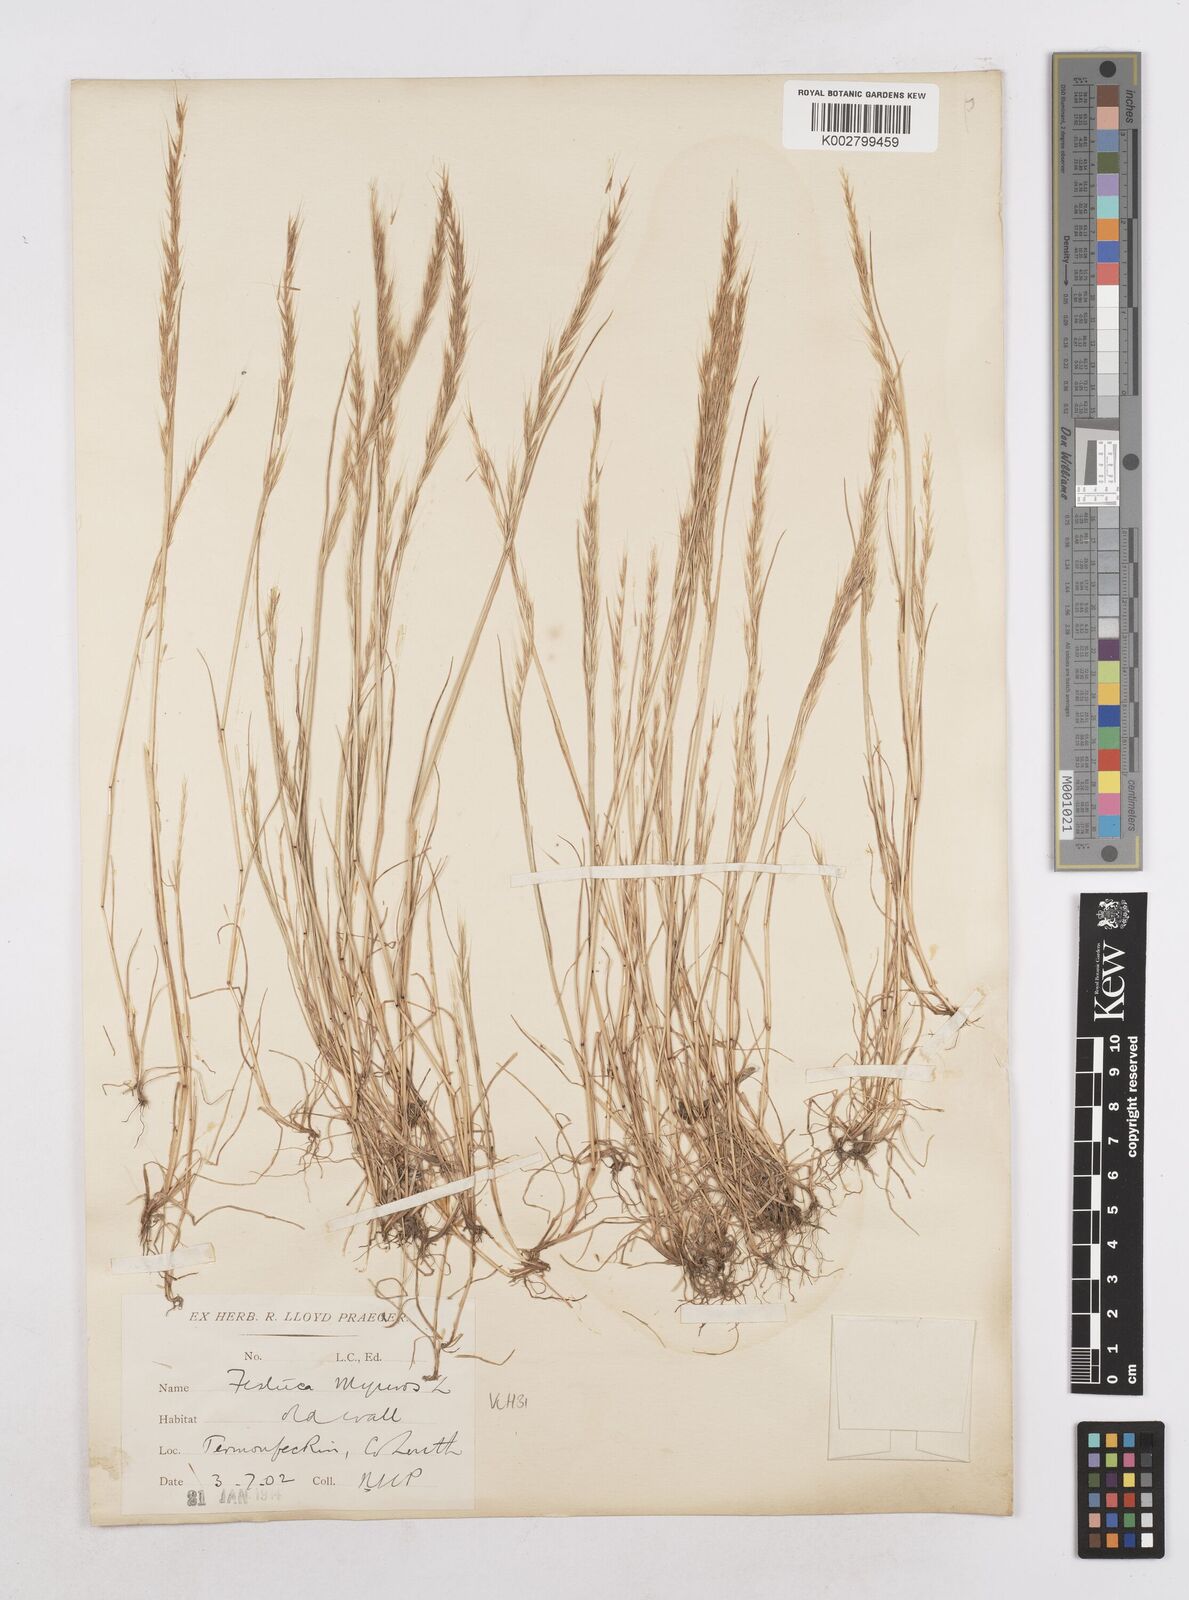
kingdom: Plantae
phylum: Tracheophyta
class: Liliopsida
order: Poales
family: Poaceae
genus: Festuca
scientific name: Festuca myuros
